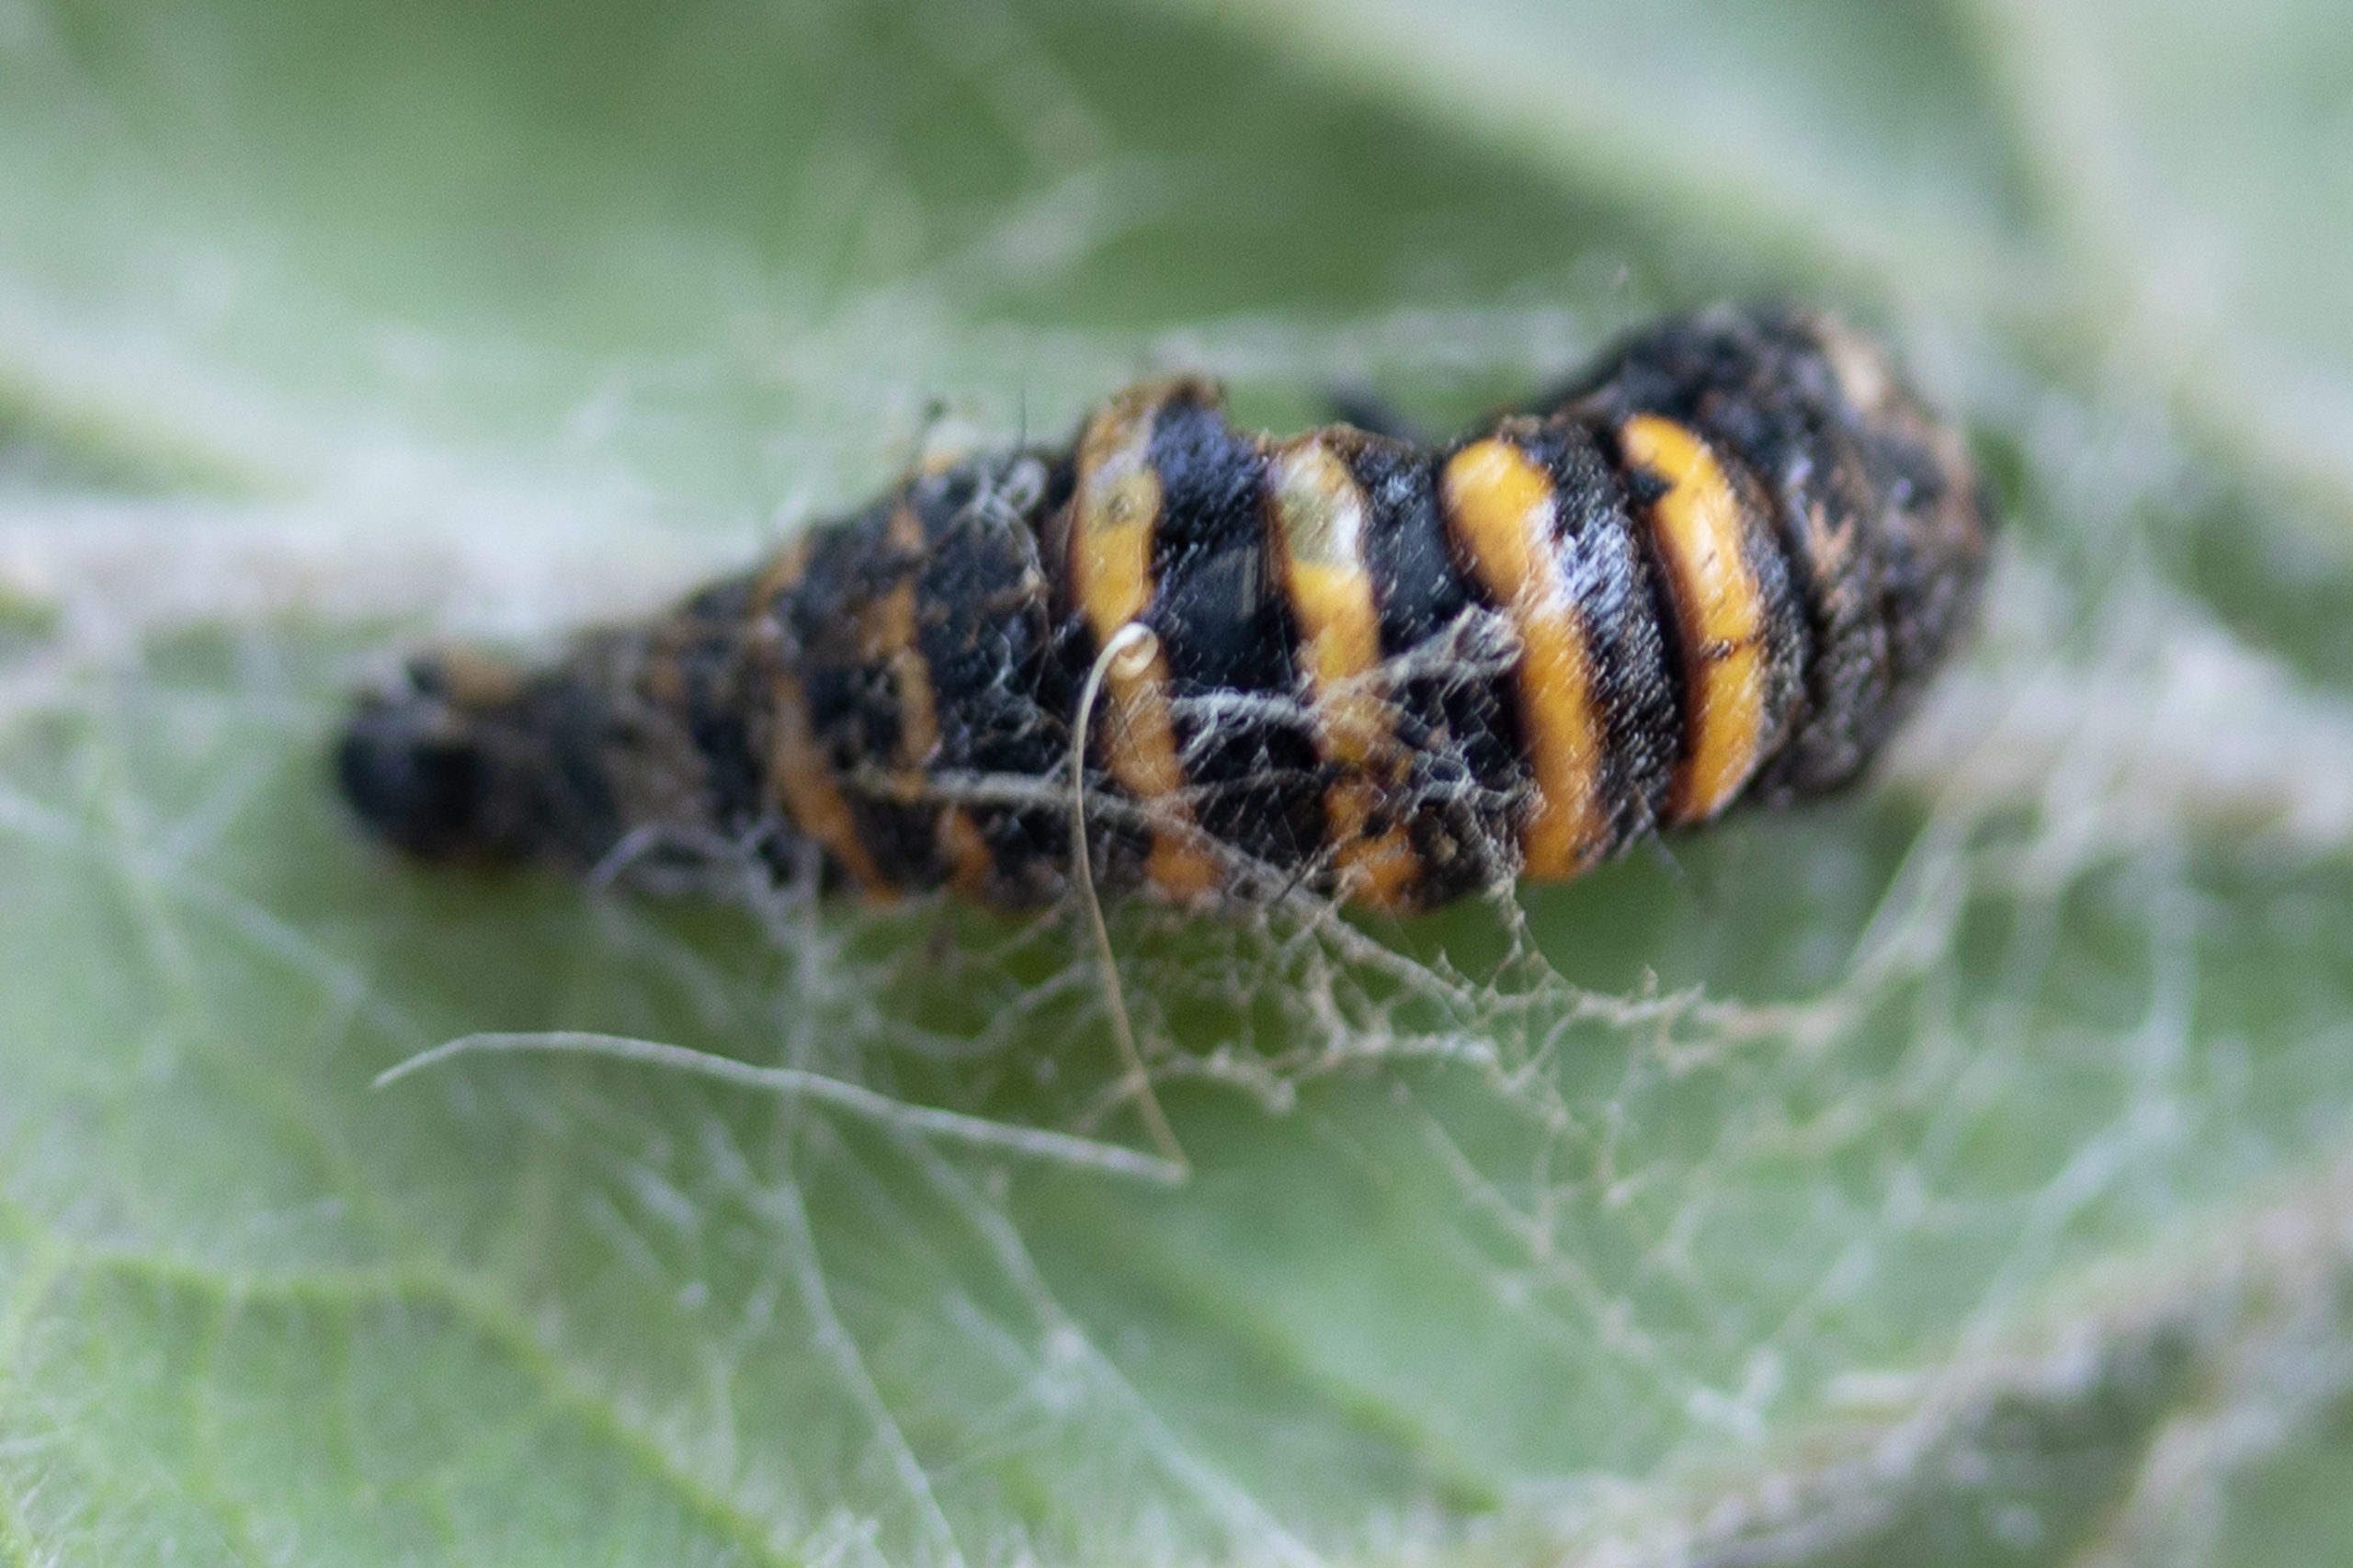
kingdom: Animalia
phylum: Arthropoda
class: Insecta
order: Lepidoptera
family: Erebidae
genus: Tyria
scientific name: Tyria jacobaeae
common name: Blodplet
